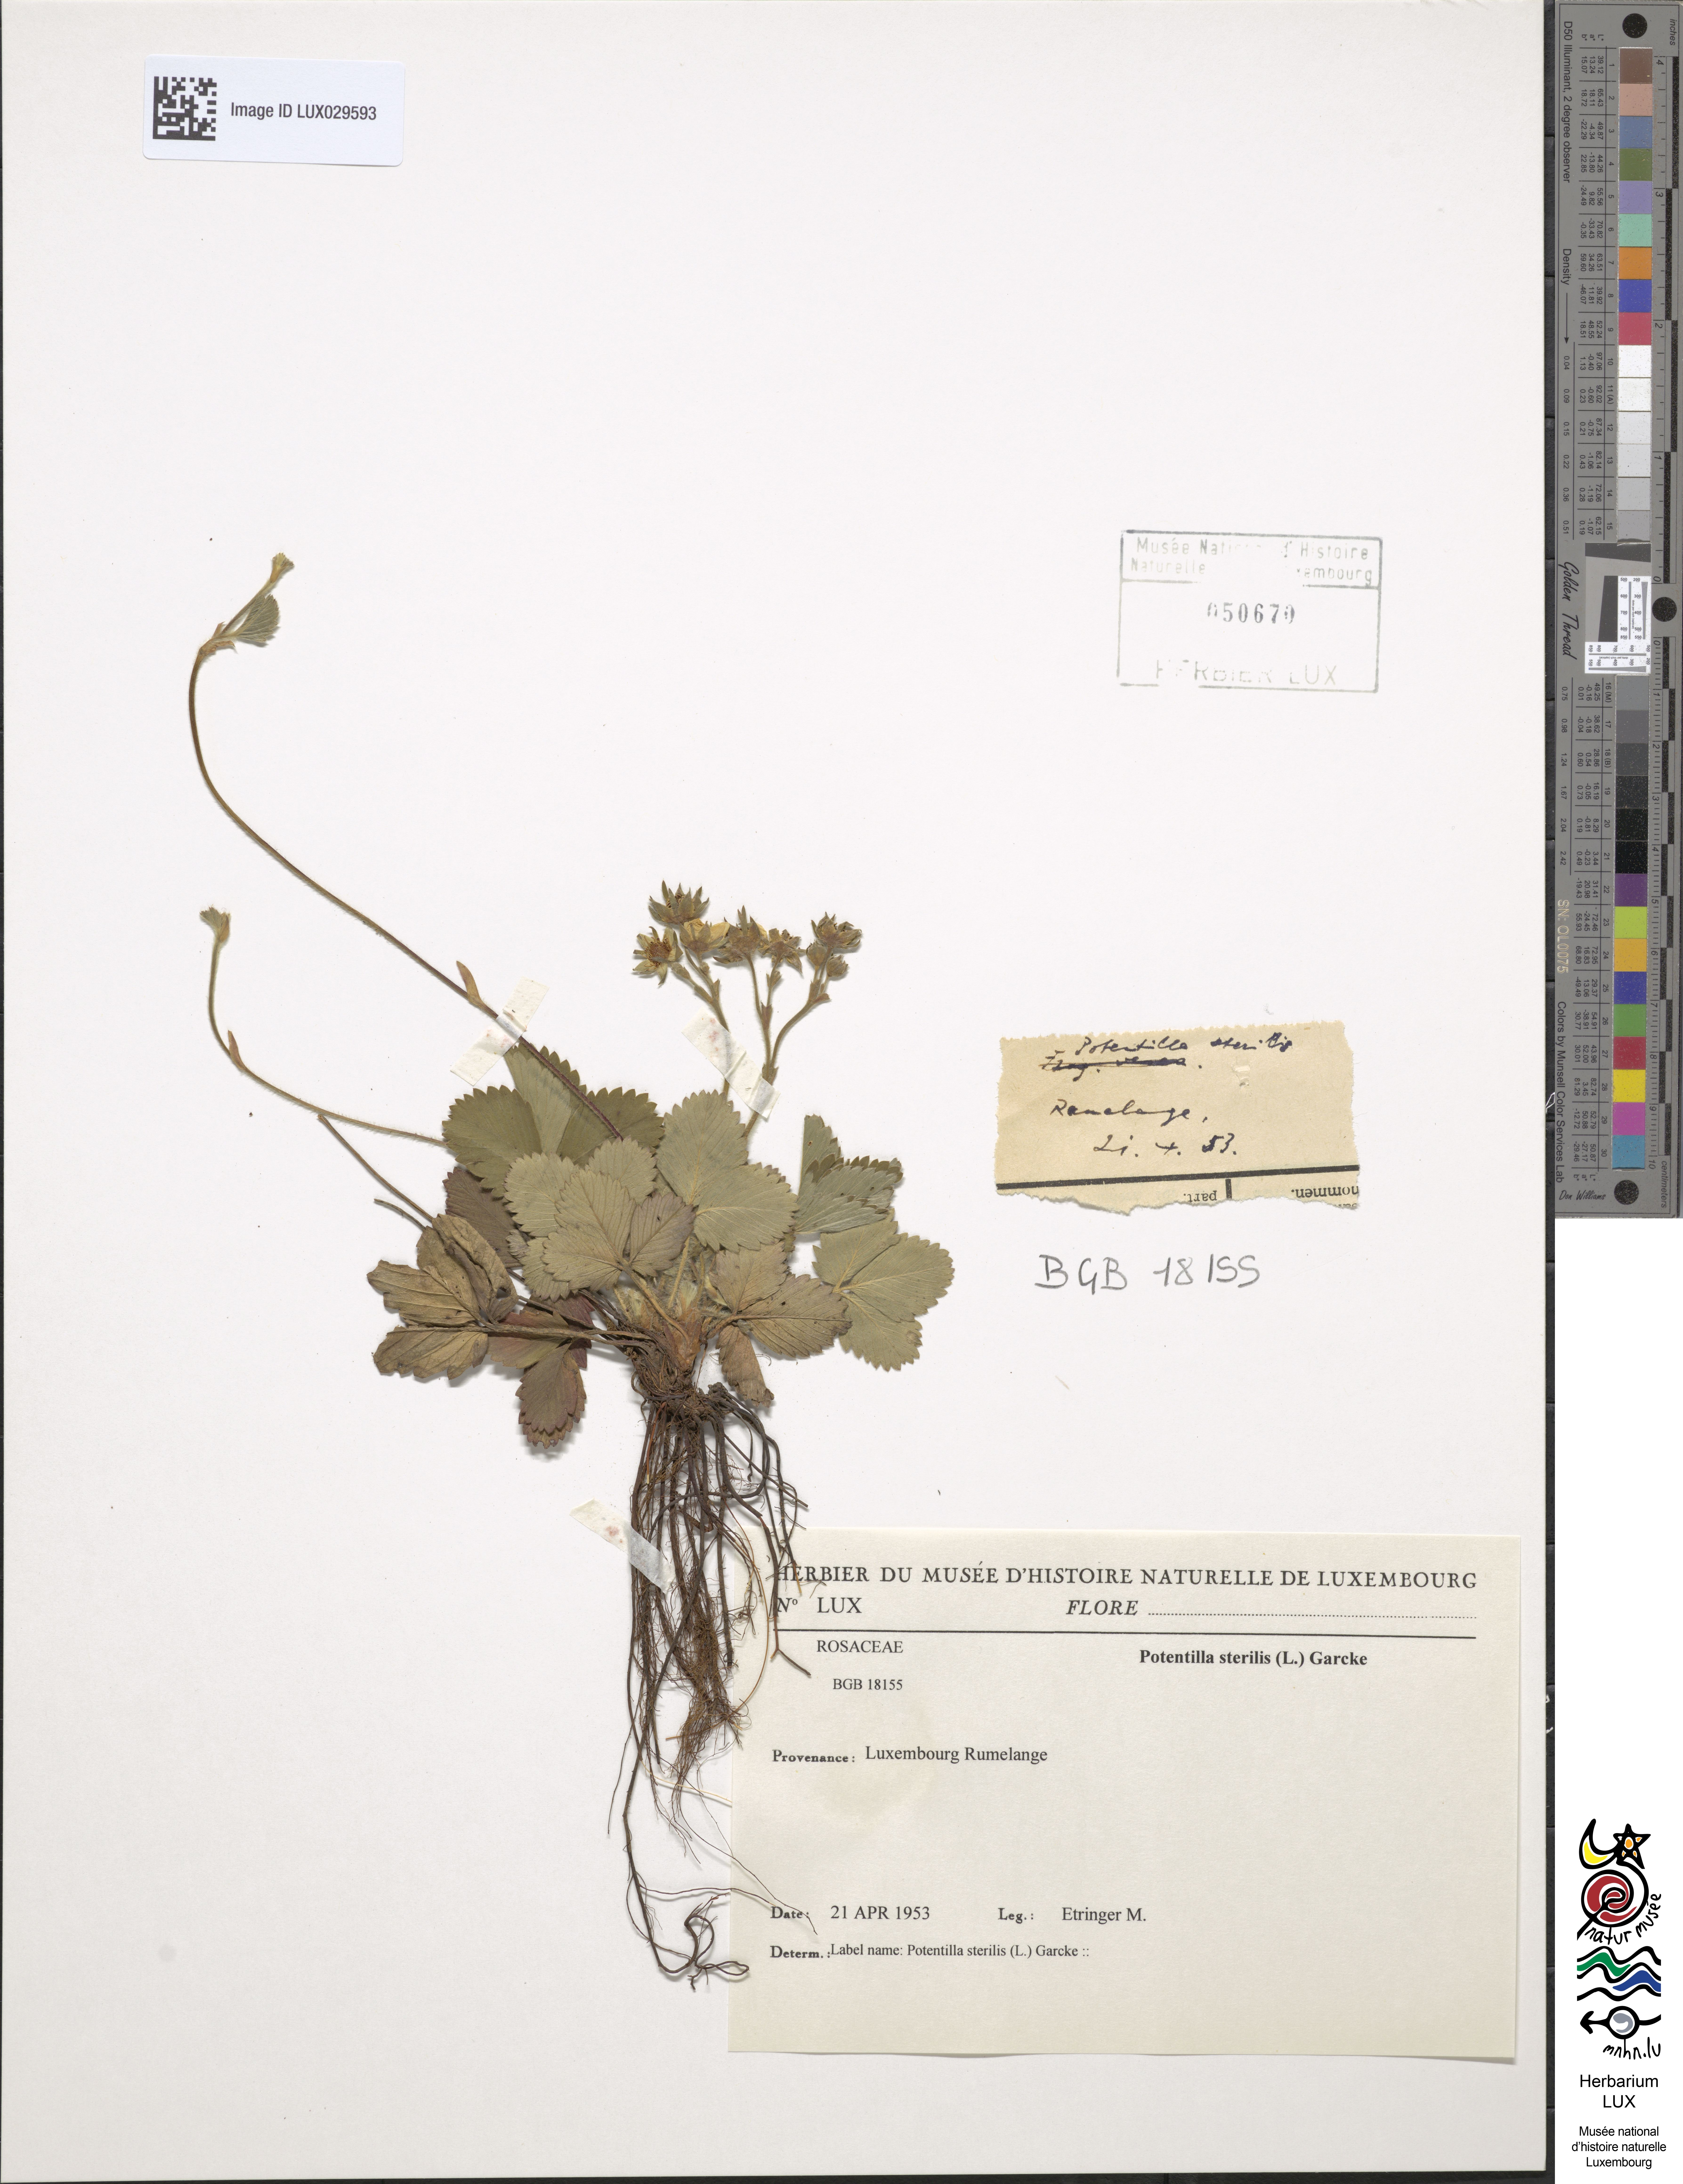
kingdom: Plantae
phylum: Tracheophyta
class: Magnoliopsida
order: Rosales
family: Rosaceae
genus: Potentilla
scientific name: Potentilla sterilis
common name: Barren strawberry
